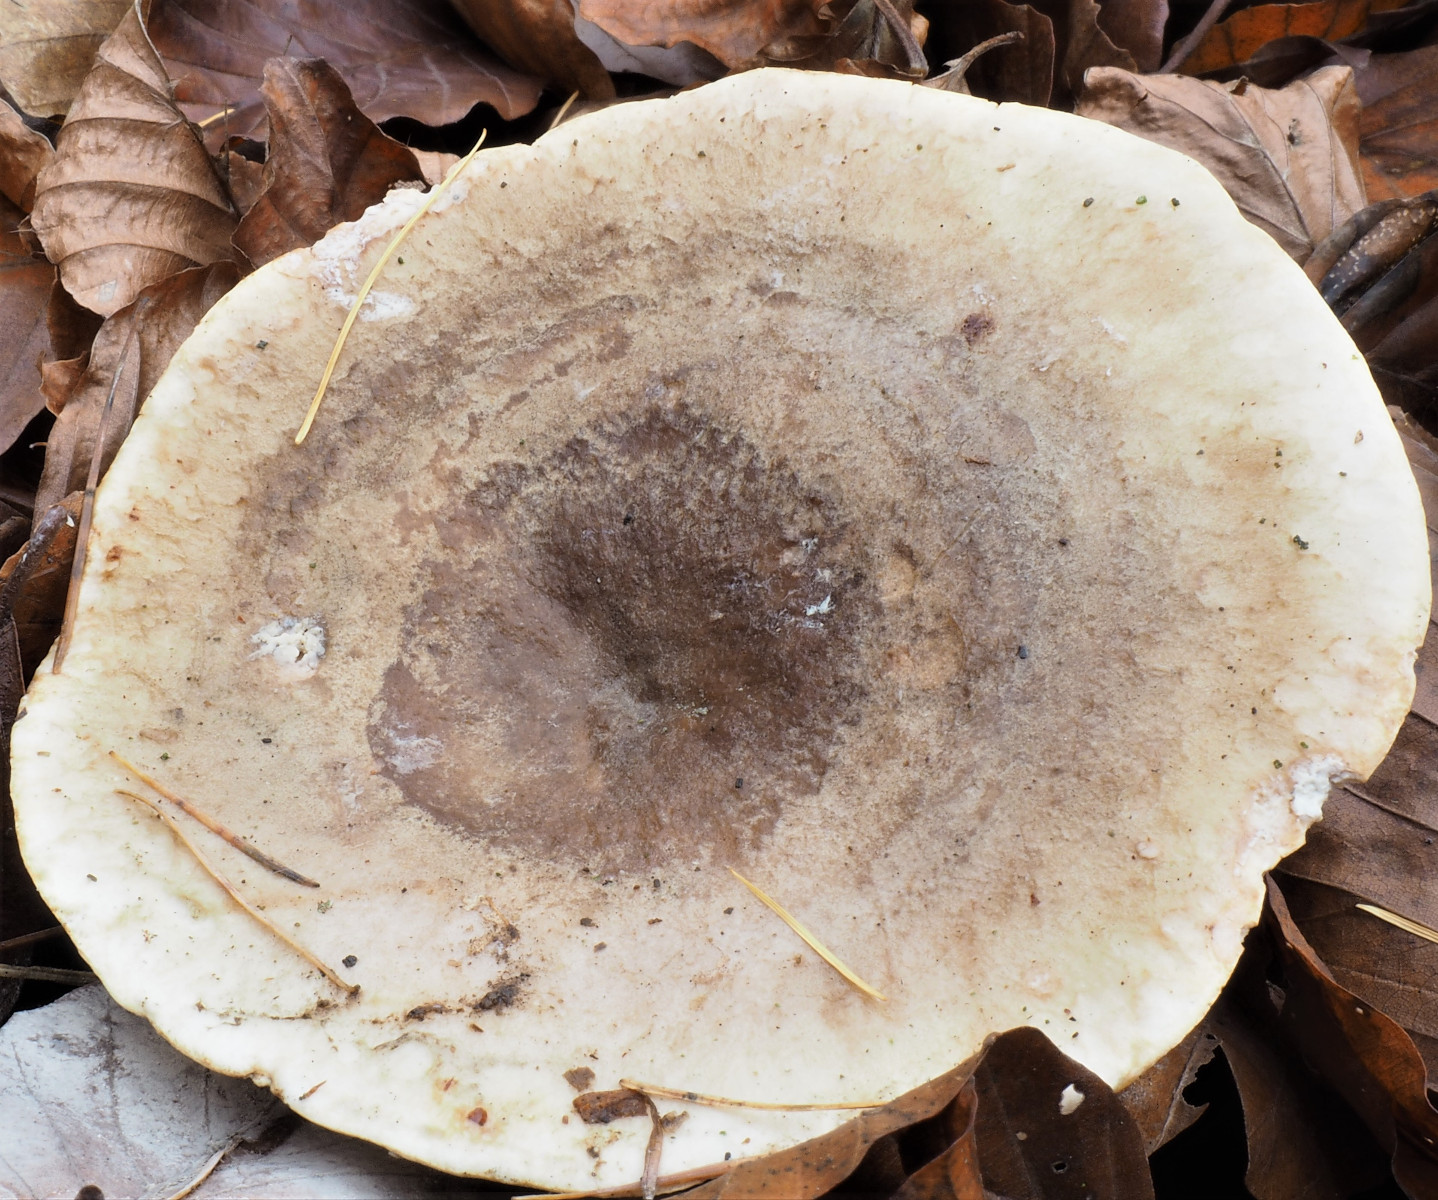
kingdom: Fungi
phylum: Basidiomycota
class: Agaricomycetes
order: Russulales
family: Russulaceae
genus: Lactarius
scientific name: Lactarius fluens
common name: lysrandet mælkehat
